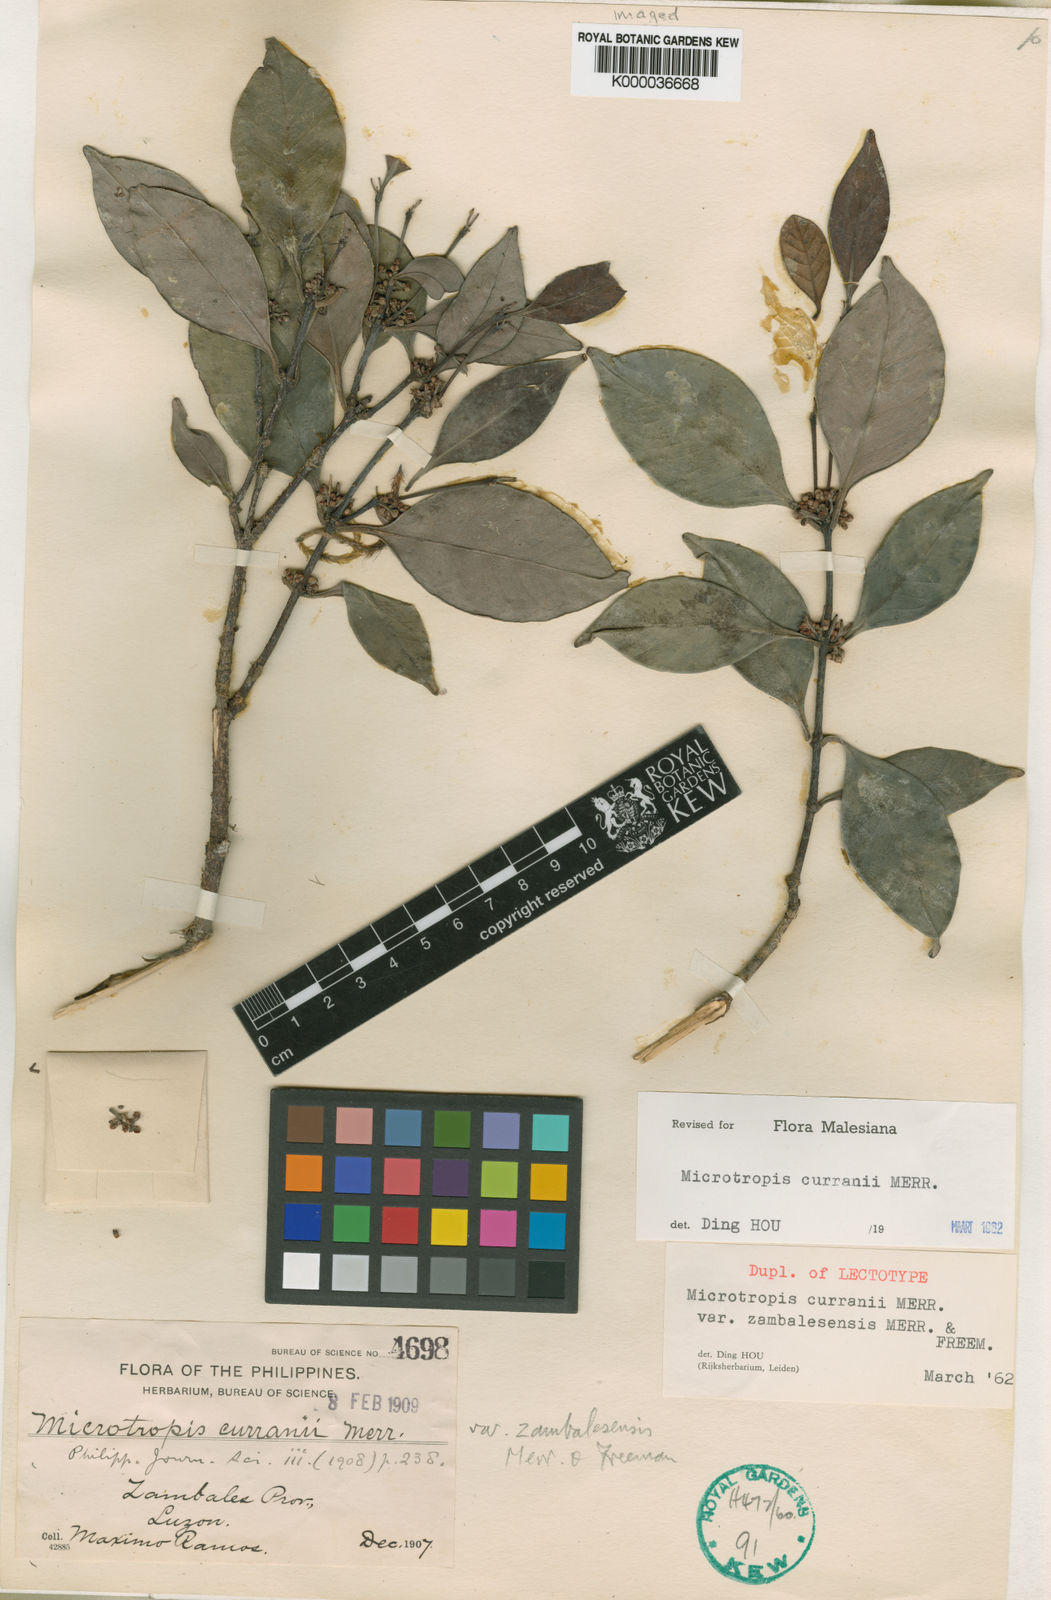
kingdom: Plantae
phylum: Tracheophyta
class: Magnoliopsida
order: Celastrales
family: Celastraceae
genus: Microtropis
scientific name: Microtropis curranii
